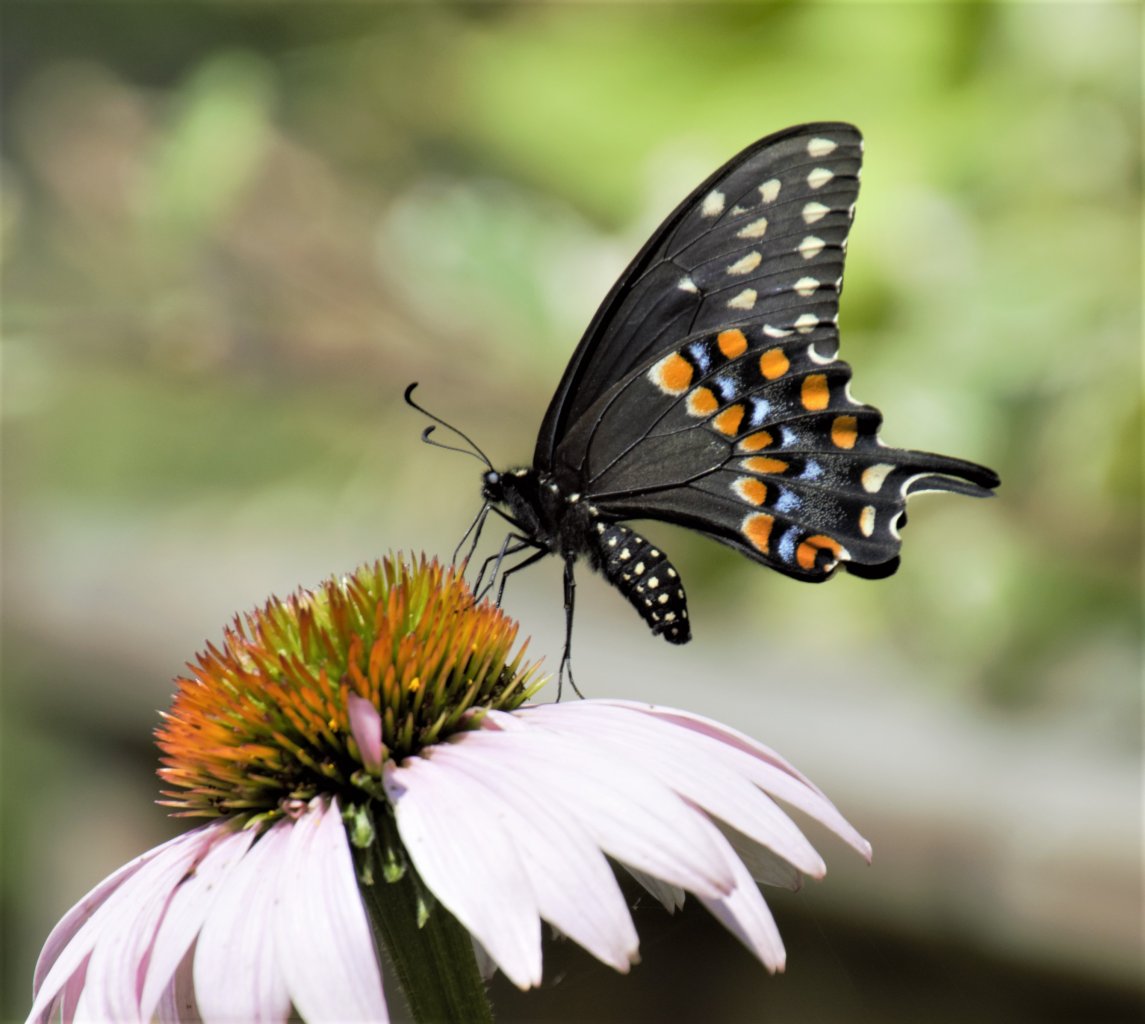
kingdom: Animalia
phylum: Arthropoda
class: Insecta
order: Lepidoptera
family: Papilionidae
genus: Papilio
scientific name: Papilio polyxenes
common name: Black Swallowtail
